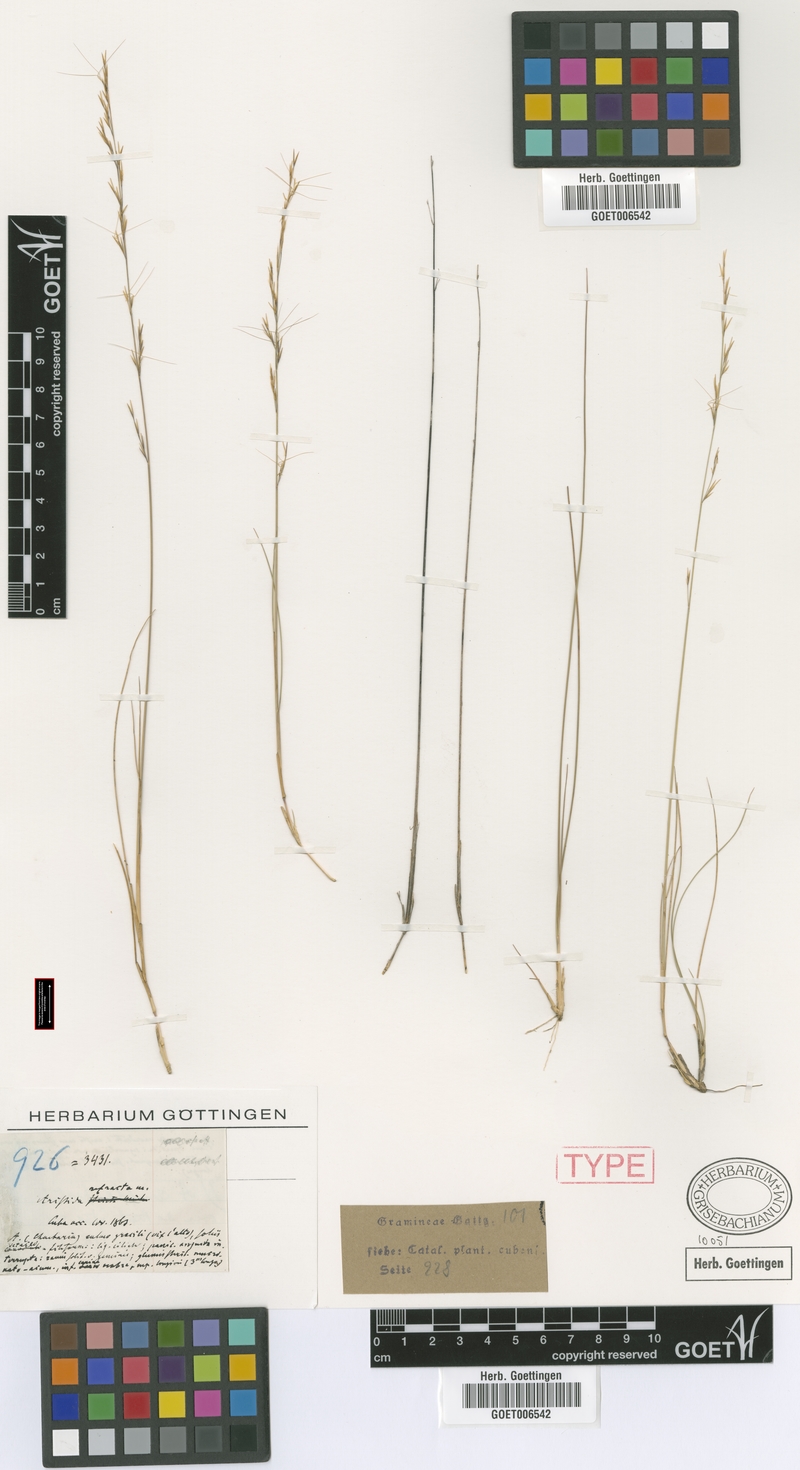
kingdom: Plantae
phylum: Tracheophyta
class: Liliopsida
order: Poales
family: Poaceae
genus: Aristida
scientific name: Aristida refracta
